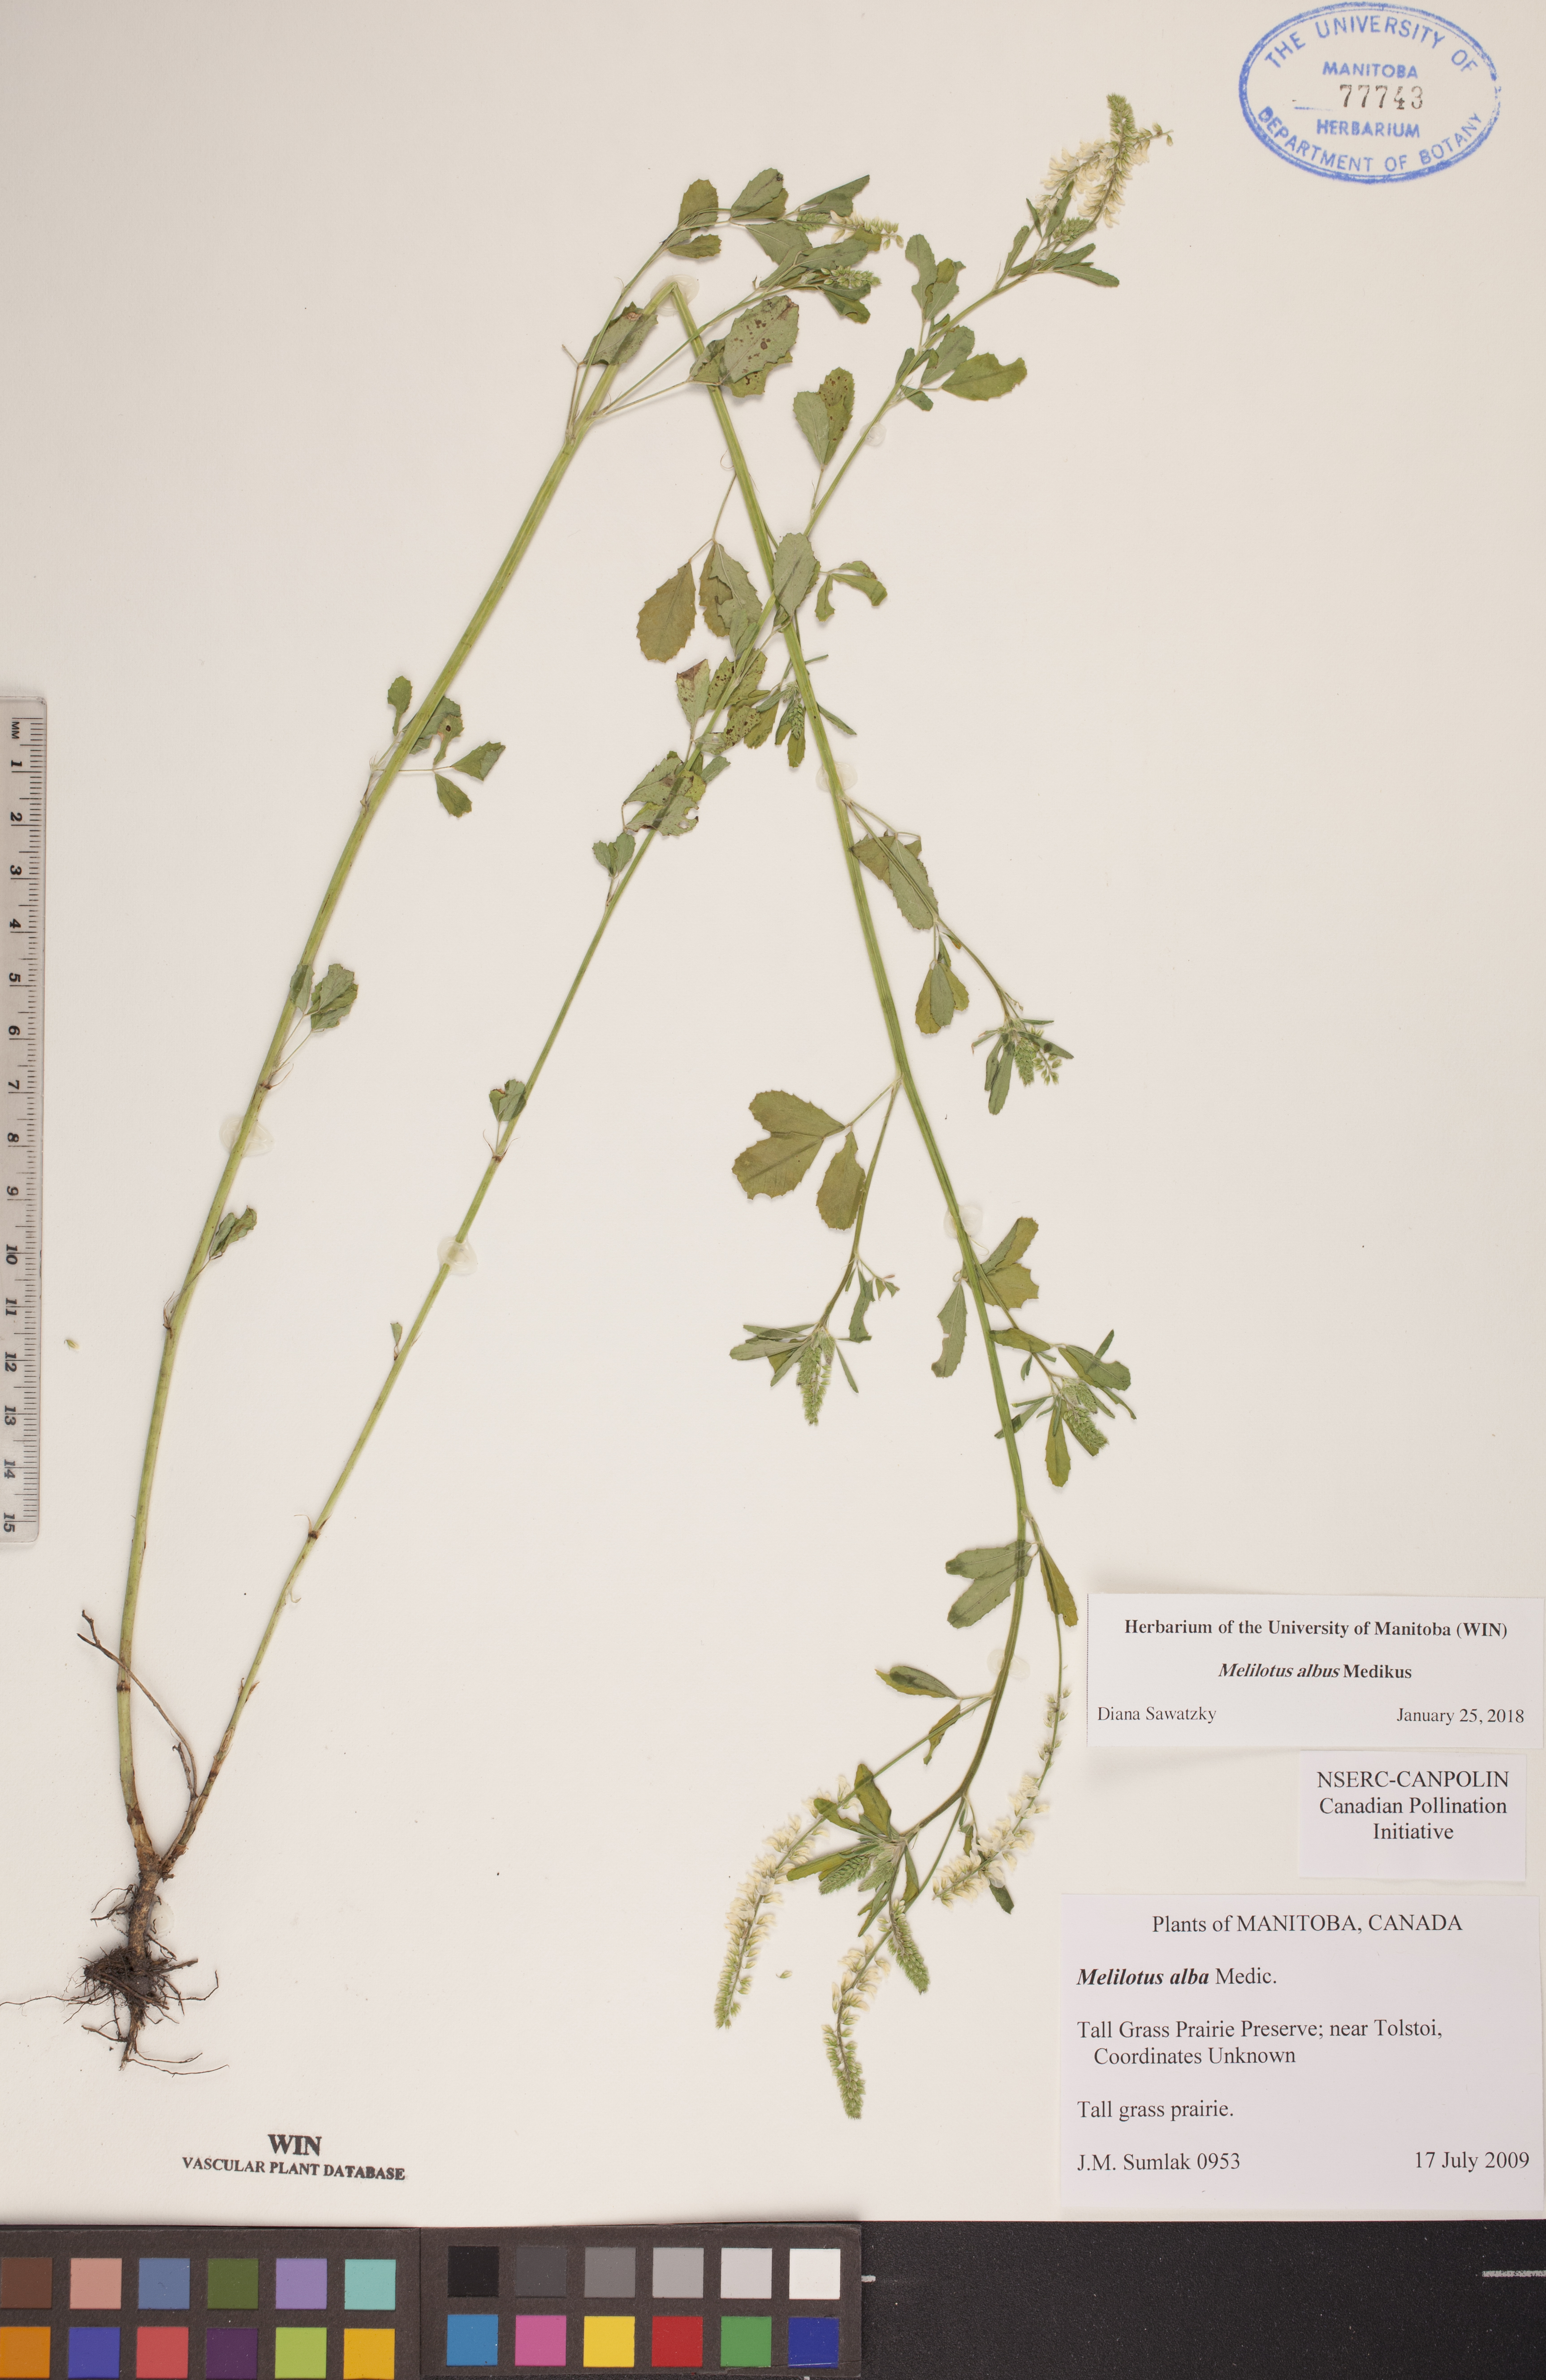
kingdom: Plantae
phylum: Tracheophyta
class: Magnoliopsida
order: Fabales
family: Fabaceae
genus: Melilotus
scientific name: Melilotus albus
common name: White melilot
